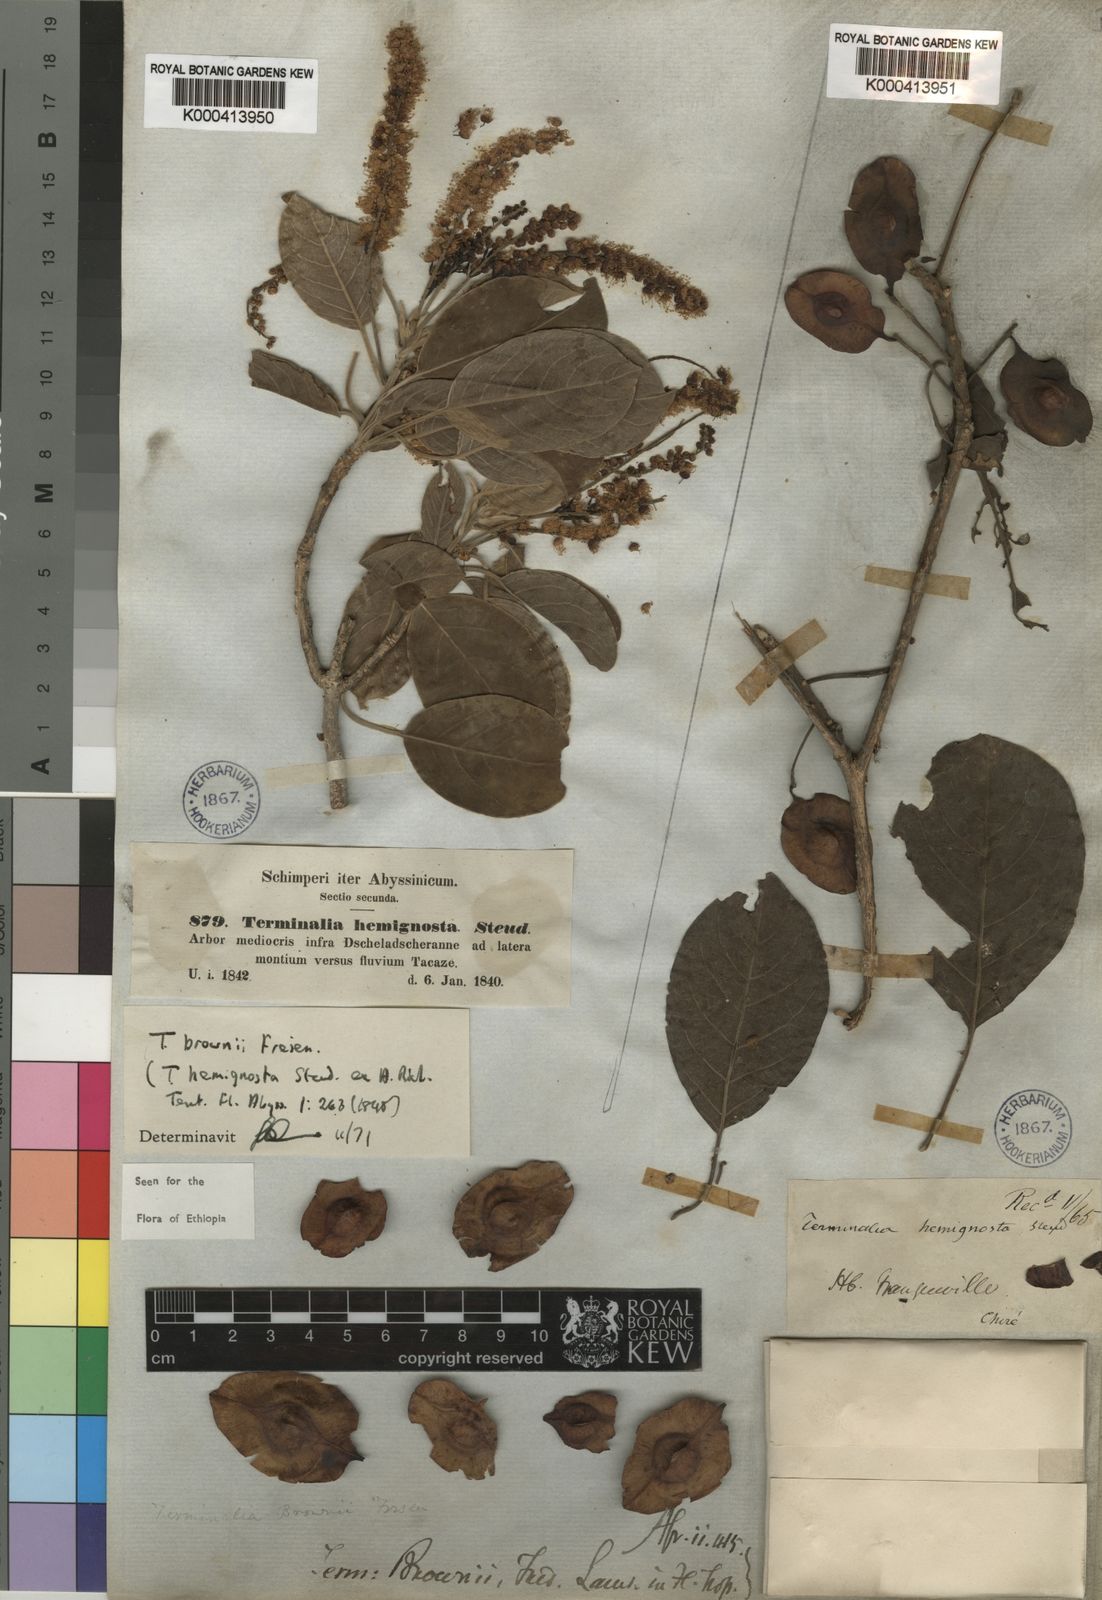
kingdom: Plantae
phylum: Tracheophyta
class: Magnoliopsida
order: Myrtales
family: Combretaceae
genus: Terminalia
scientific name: Terminalia brownii
